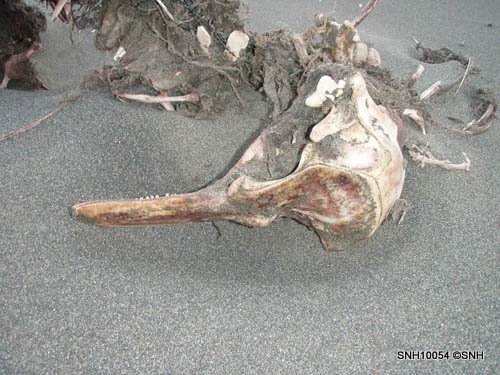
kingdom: Animalia
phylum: Chordata
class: Mammalia
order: Cetacea
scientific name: Cetacea
